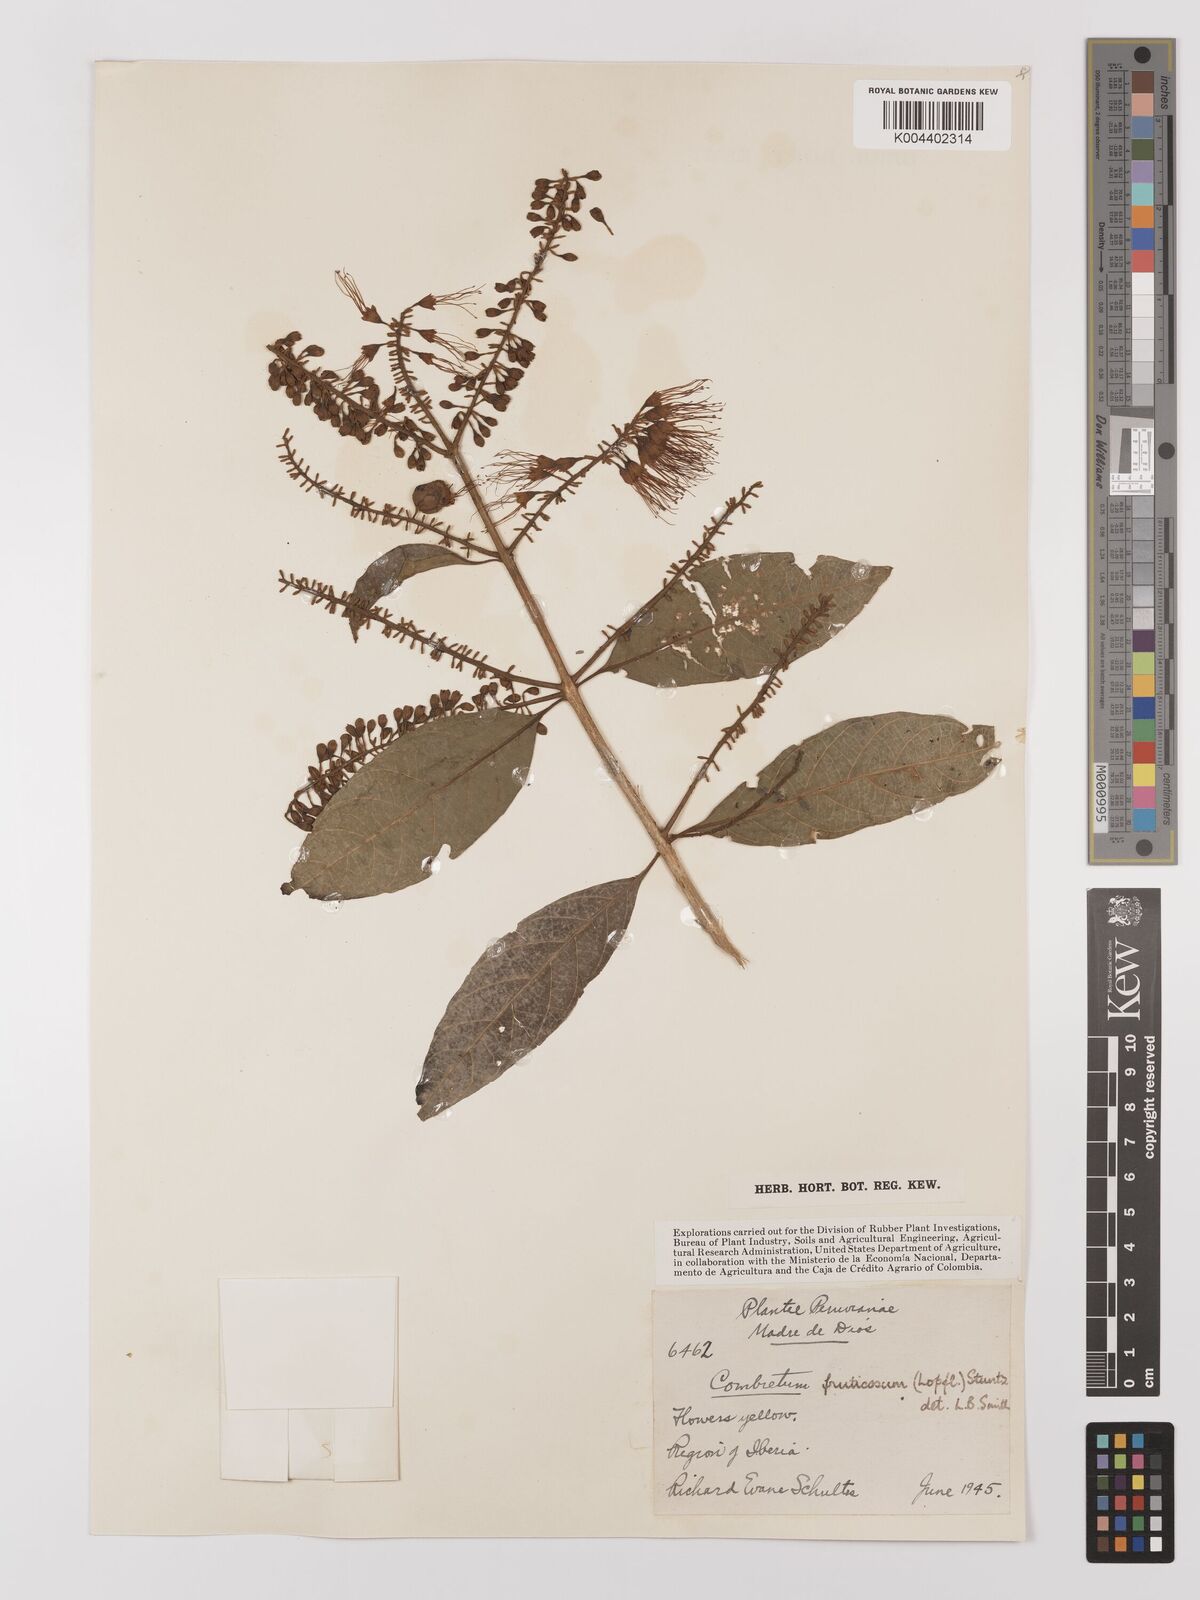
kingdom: Plantae
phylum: Tracheophyta
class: Magnoliopsida
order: Myrtales
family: Combretaceae
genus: Combretum
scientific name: Combretum fruticosum
